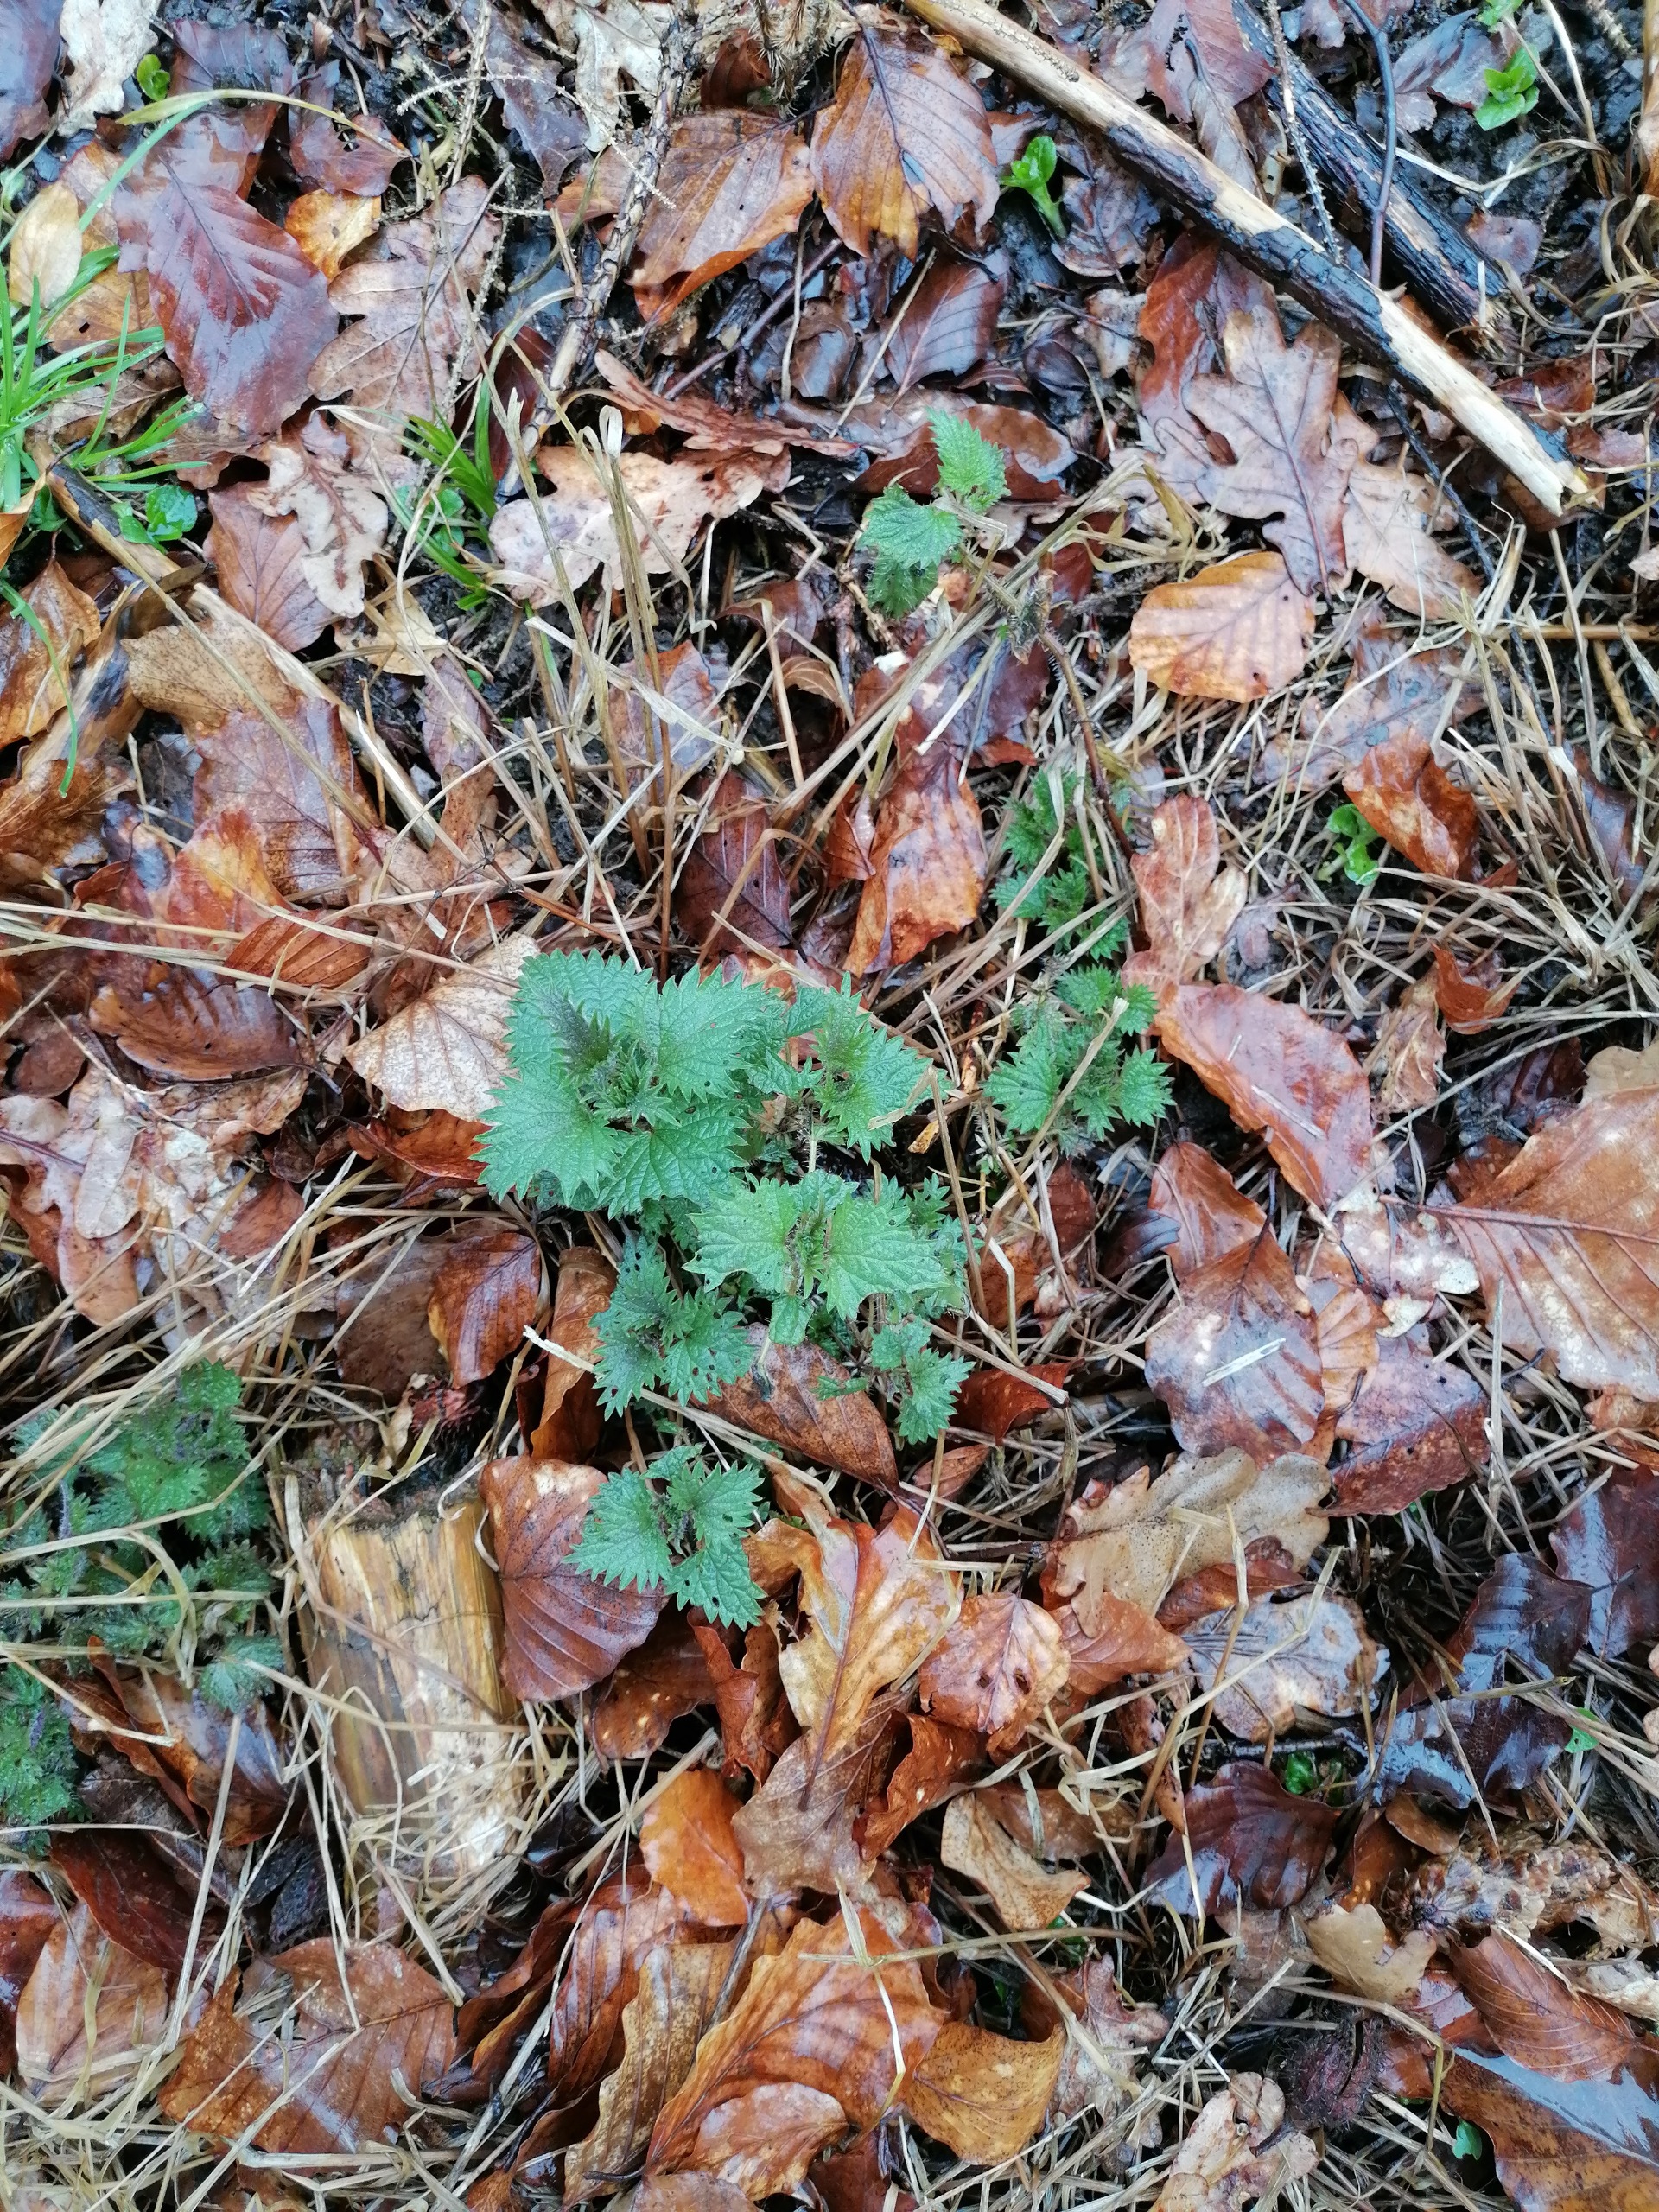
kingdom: Plantae
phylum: Tracheophyta
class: Magnoliopsida
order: Rosales
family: Urticaceae
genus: Urtica
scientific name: Urtica dioica
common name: Stor nælde
